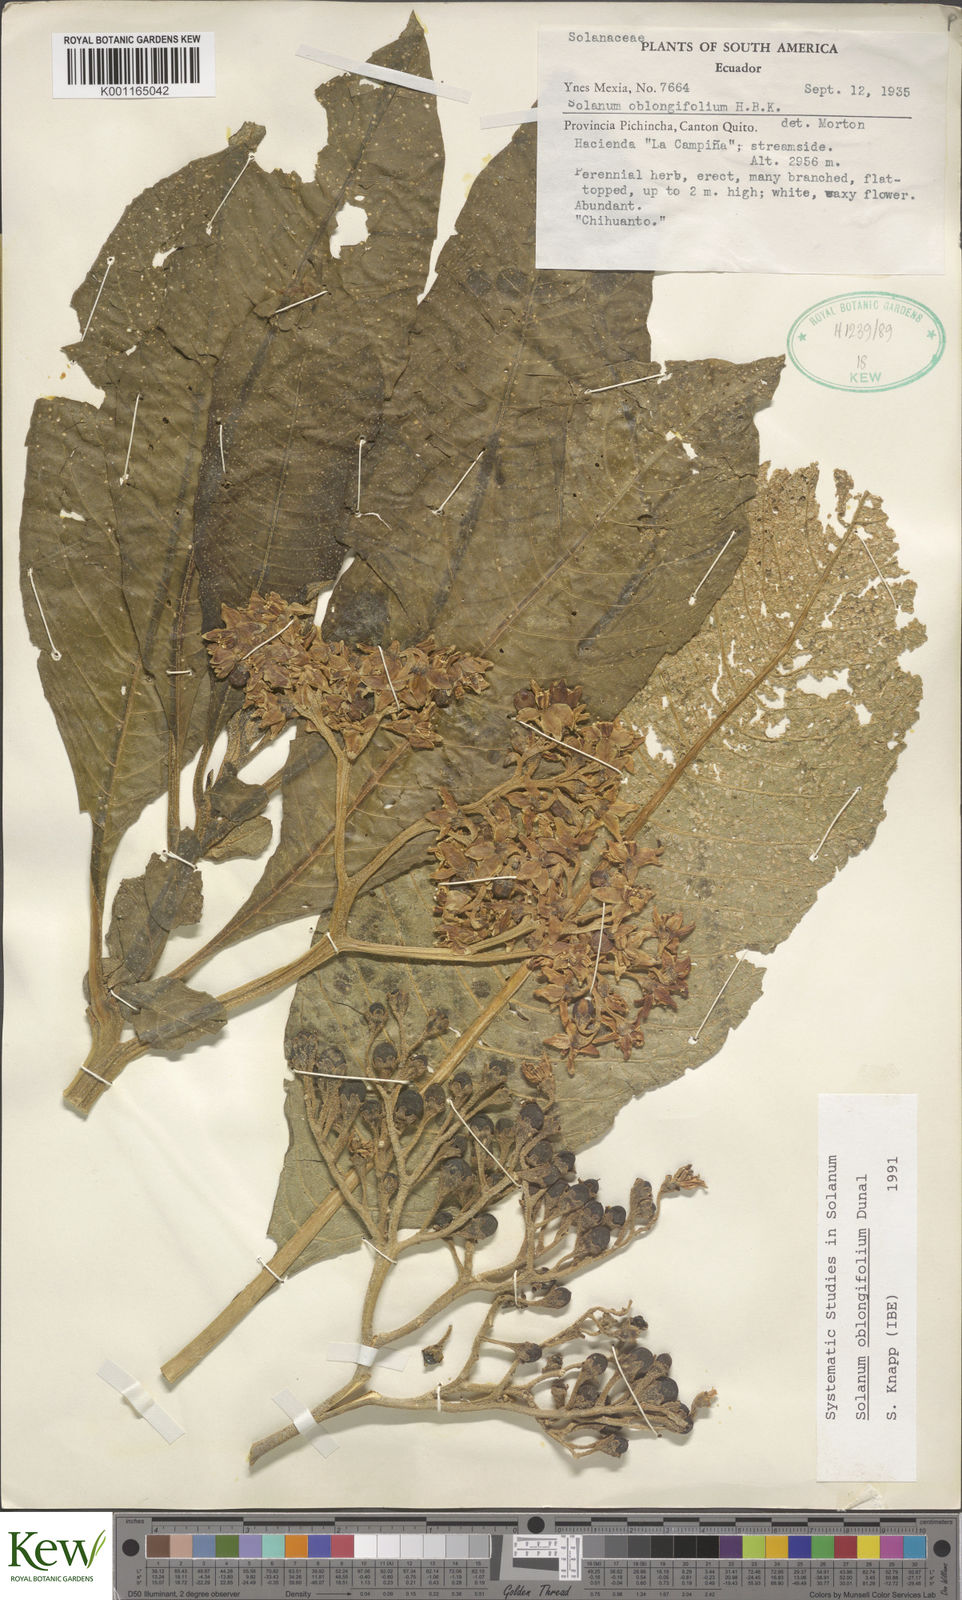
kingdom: Plantae
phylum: Tracheophyta
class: Magnoliopsida
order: Solanales
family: Solanaceae
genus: Solanum
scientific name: Solanum oblongifolium
